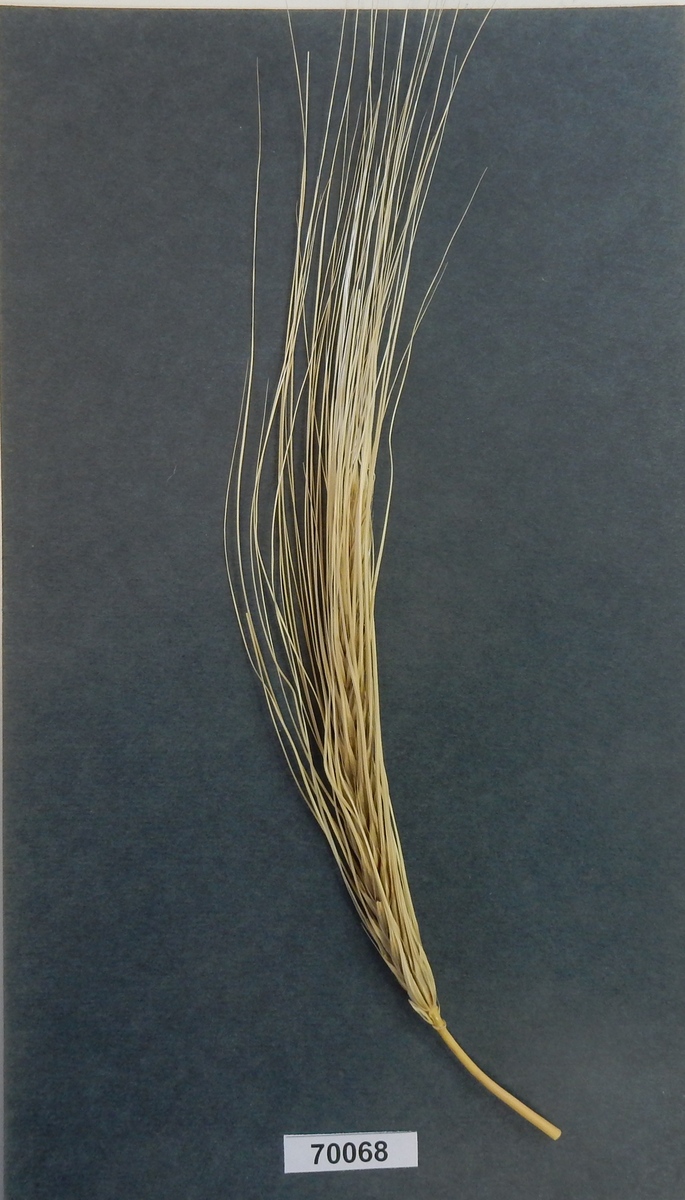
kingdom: Plantae
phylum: Tracheophyta
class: Liliopsida
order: Poales
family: Poaceae
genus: Hordeum
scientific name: Hordeum
